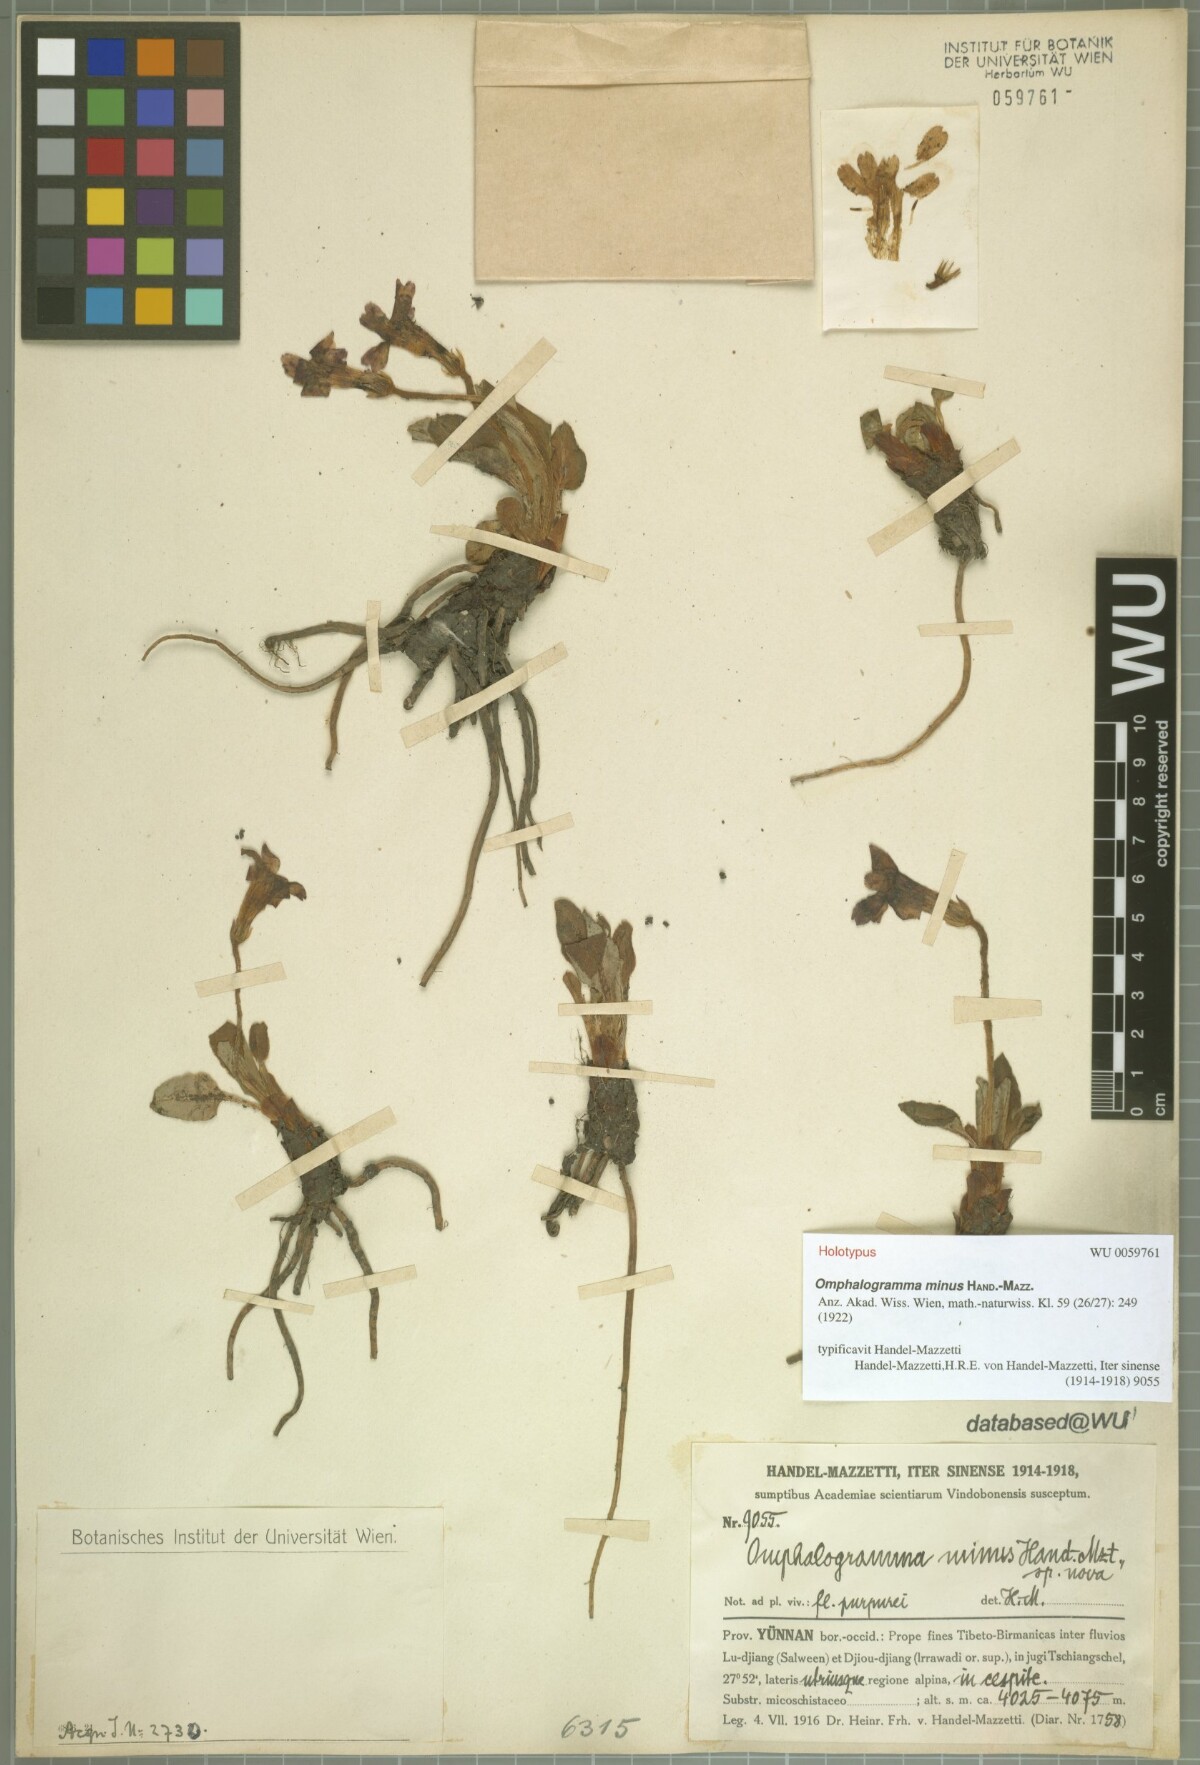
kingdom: Plantae
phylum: Tracheophyta
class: Magnoliopsida
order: Ericales
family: Primulaceae
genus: Omphalogramma
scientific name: Omphalogramma minus
